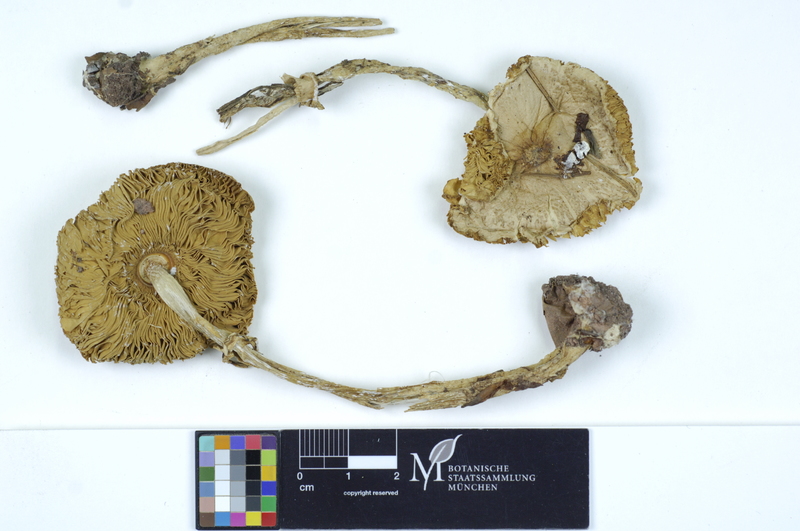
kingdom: Fungi
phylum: Basidiomycota
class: Agaricomycetes
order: Agaricales
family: Agaricaceae
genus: Macrolepiota
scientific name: Macrolepiota mastoidea
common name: Slender parasol
